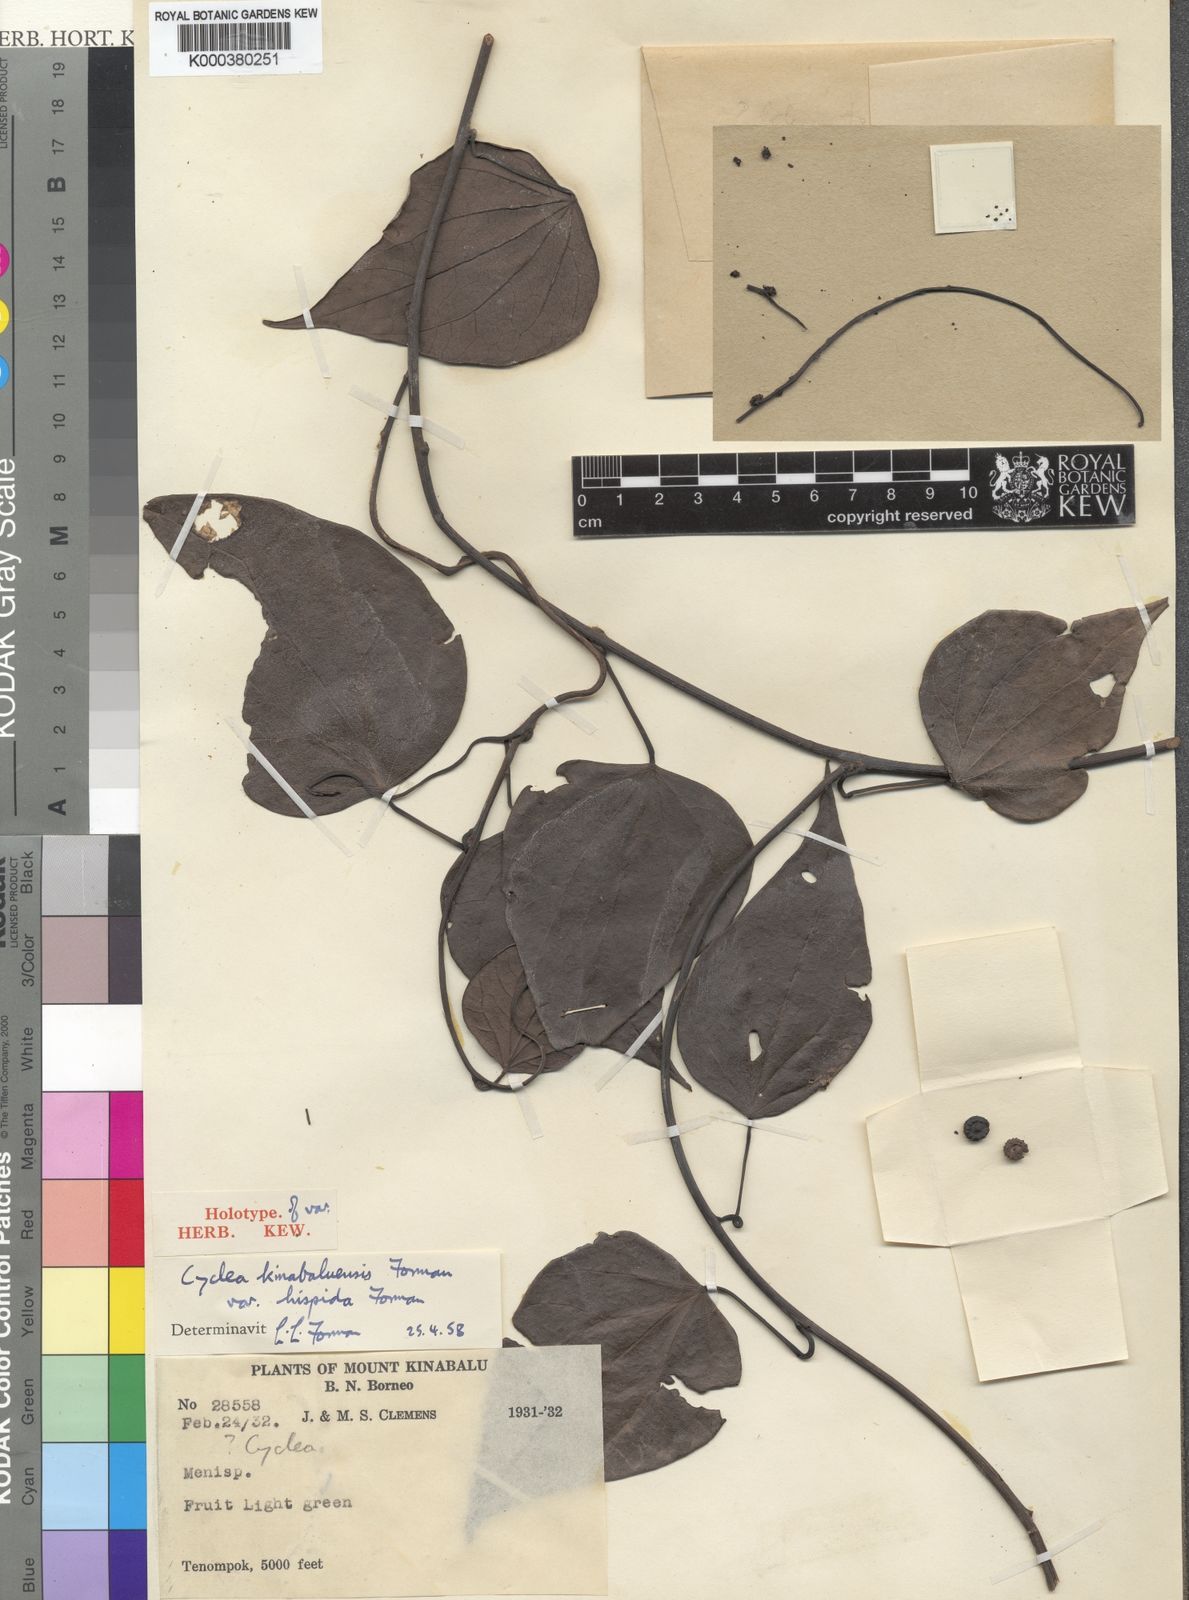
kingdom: Plantae
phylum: Tracheophyta
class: Magnoliopsida
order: Ranunculales
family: Menispermaceae
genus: Cyclea
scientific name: Cyclea kinabaluensis
